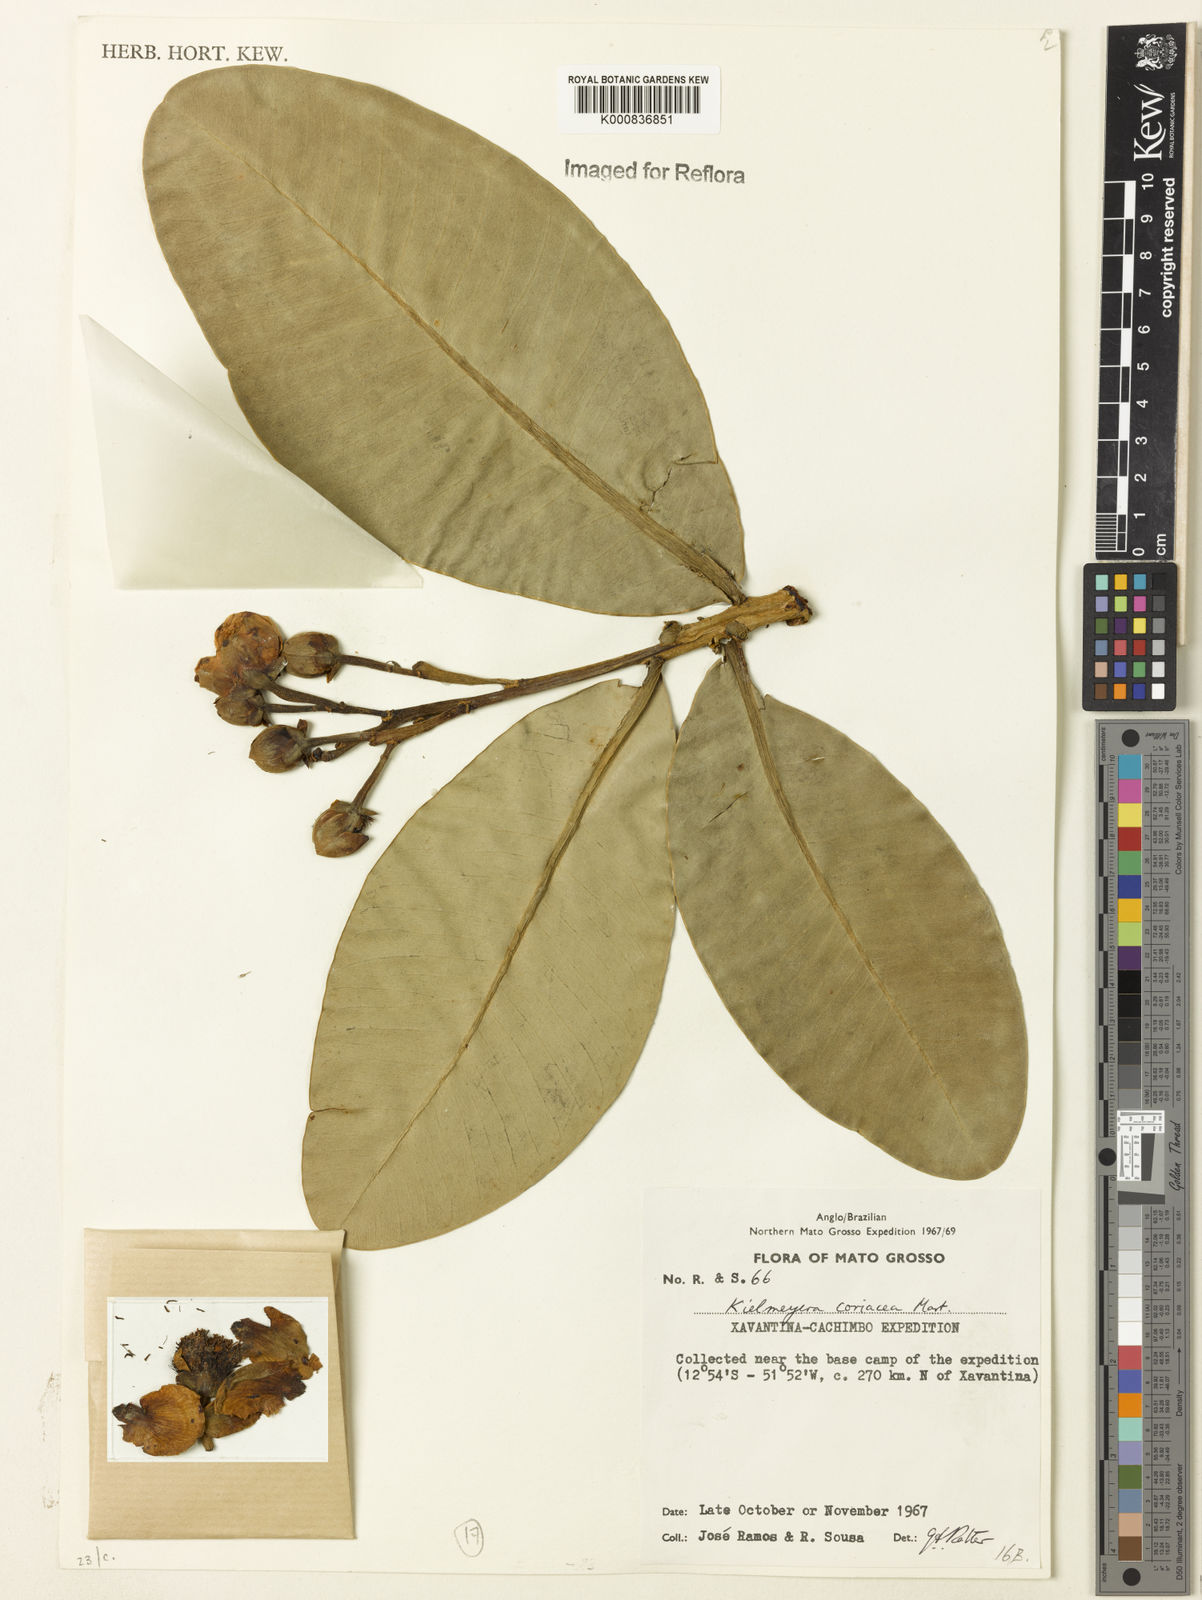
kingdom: Plantae
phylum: Tracheophyta
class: Magnoliopsida
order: Malpighiales
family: Calophyllaceae
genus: Kielmeyera
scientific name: Kielmeyera coriacea
